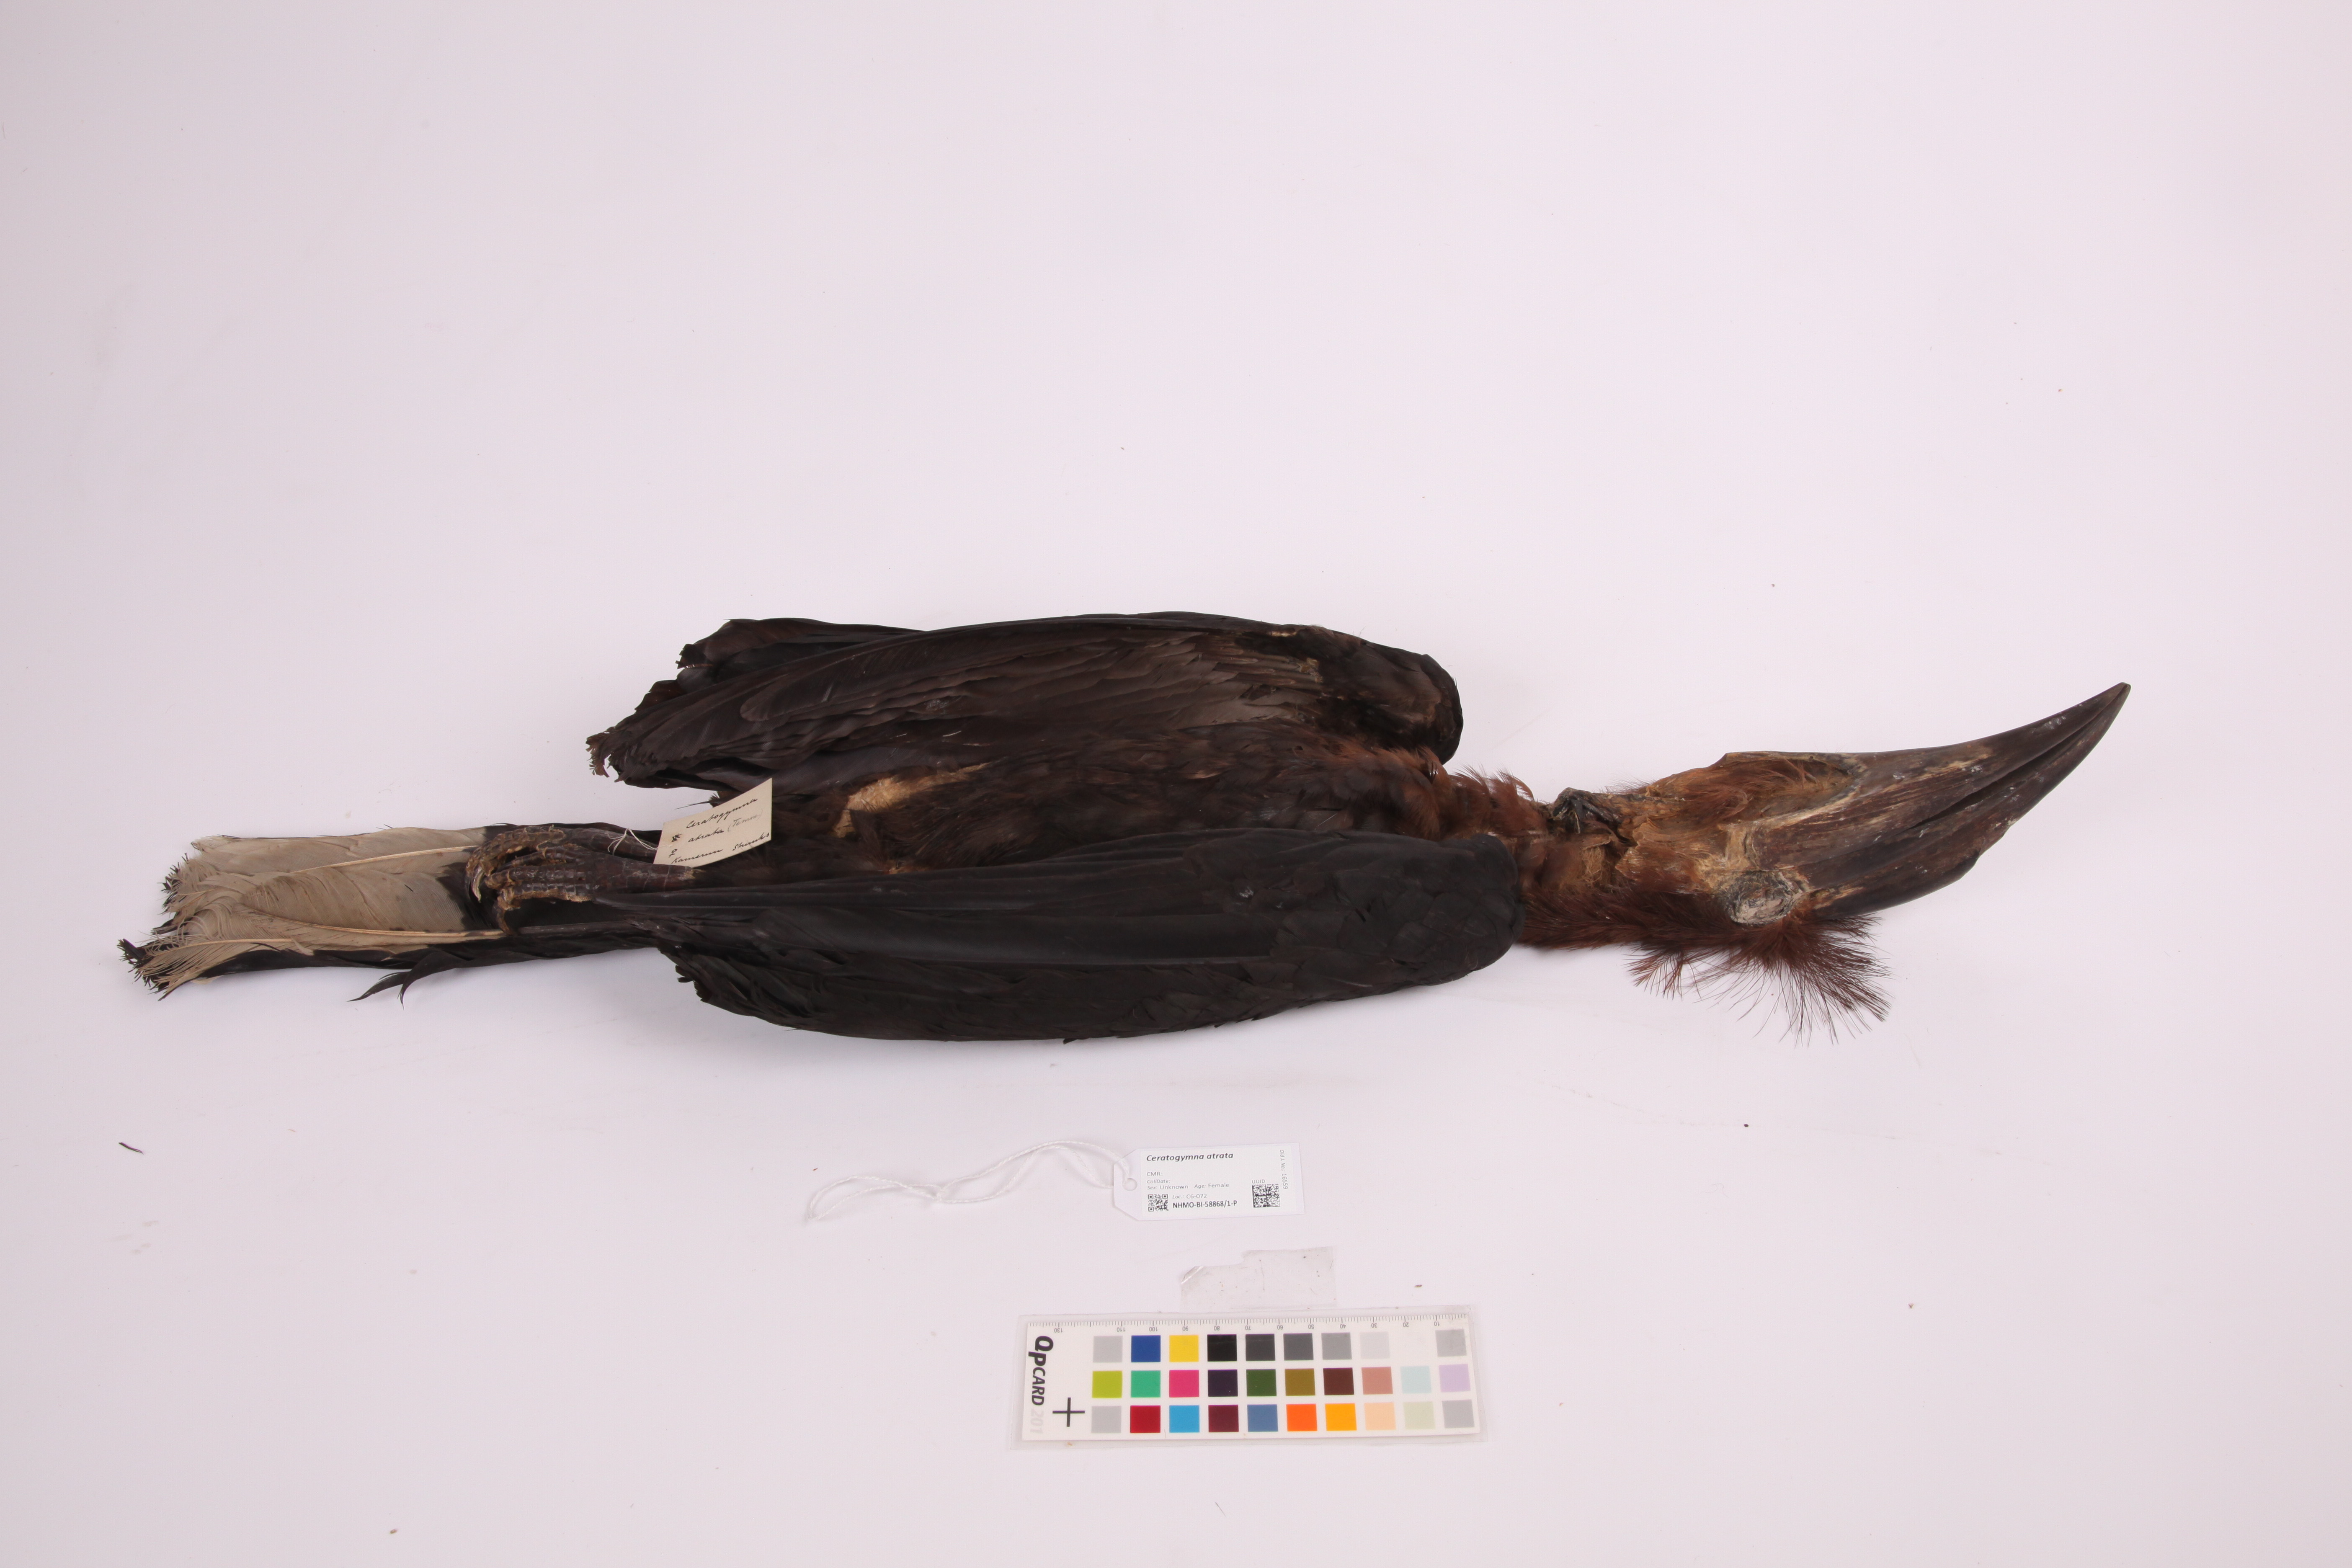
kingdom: Animalia
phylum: Chordata
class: Aves
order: Bucerotiformes
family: Bucerotidae
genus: Ceratogymna
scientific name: Ceratogymna atrata
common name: Black-casqued hornbill
